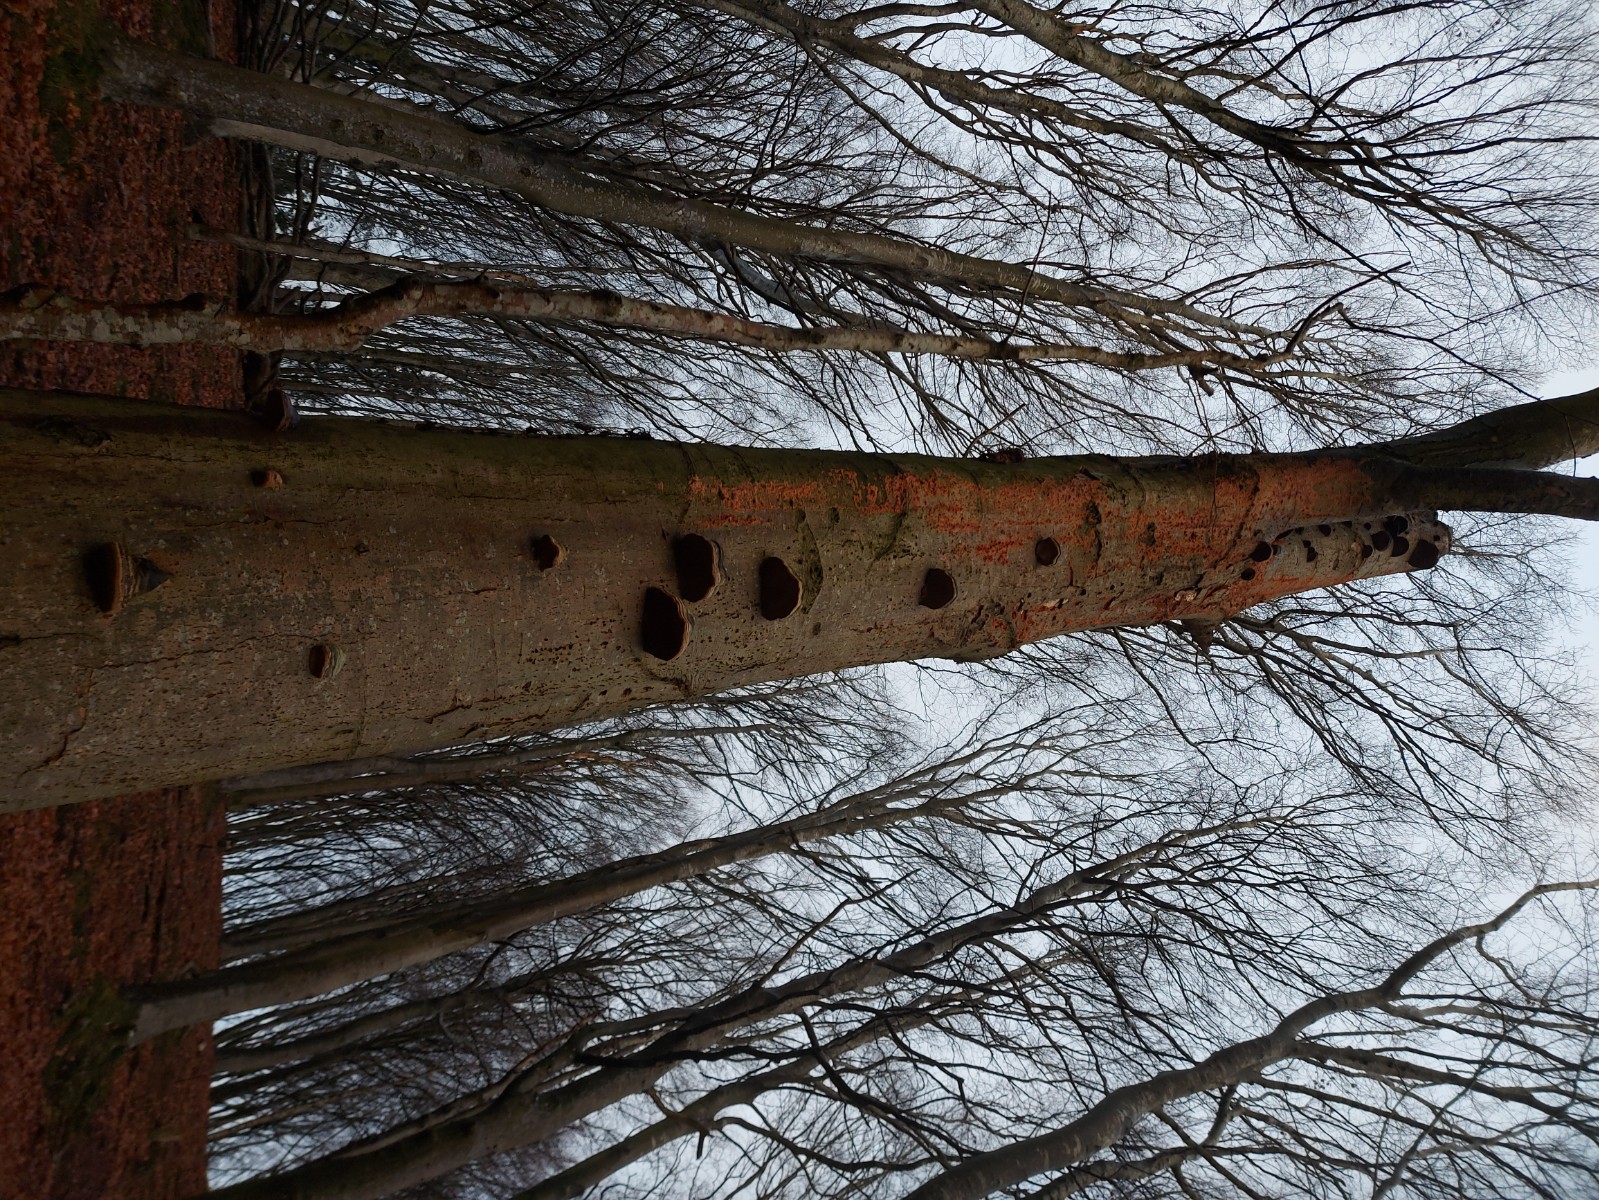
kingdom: Fungi
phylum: Basidiomycota
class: Agaricomycetes
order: Polyporales
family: Meruliaceae
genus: Phlebia
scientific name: Phlebia radiata
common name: stråle-åresvamp
